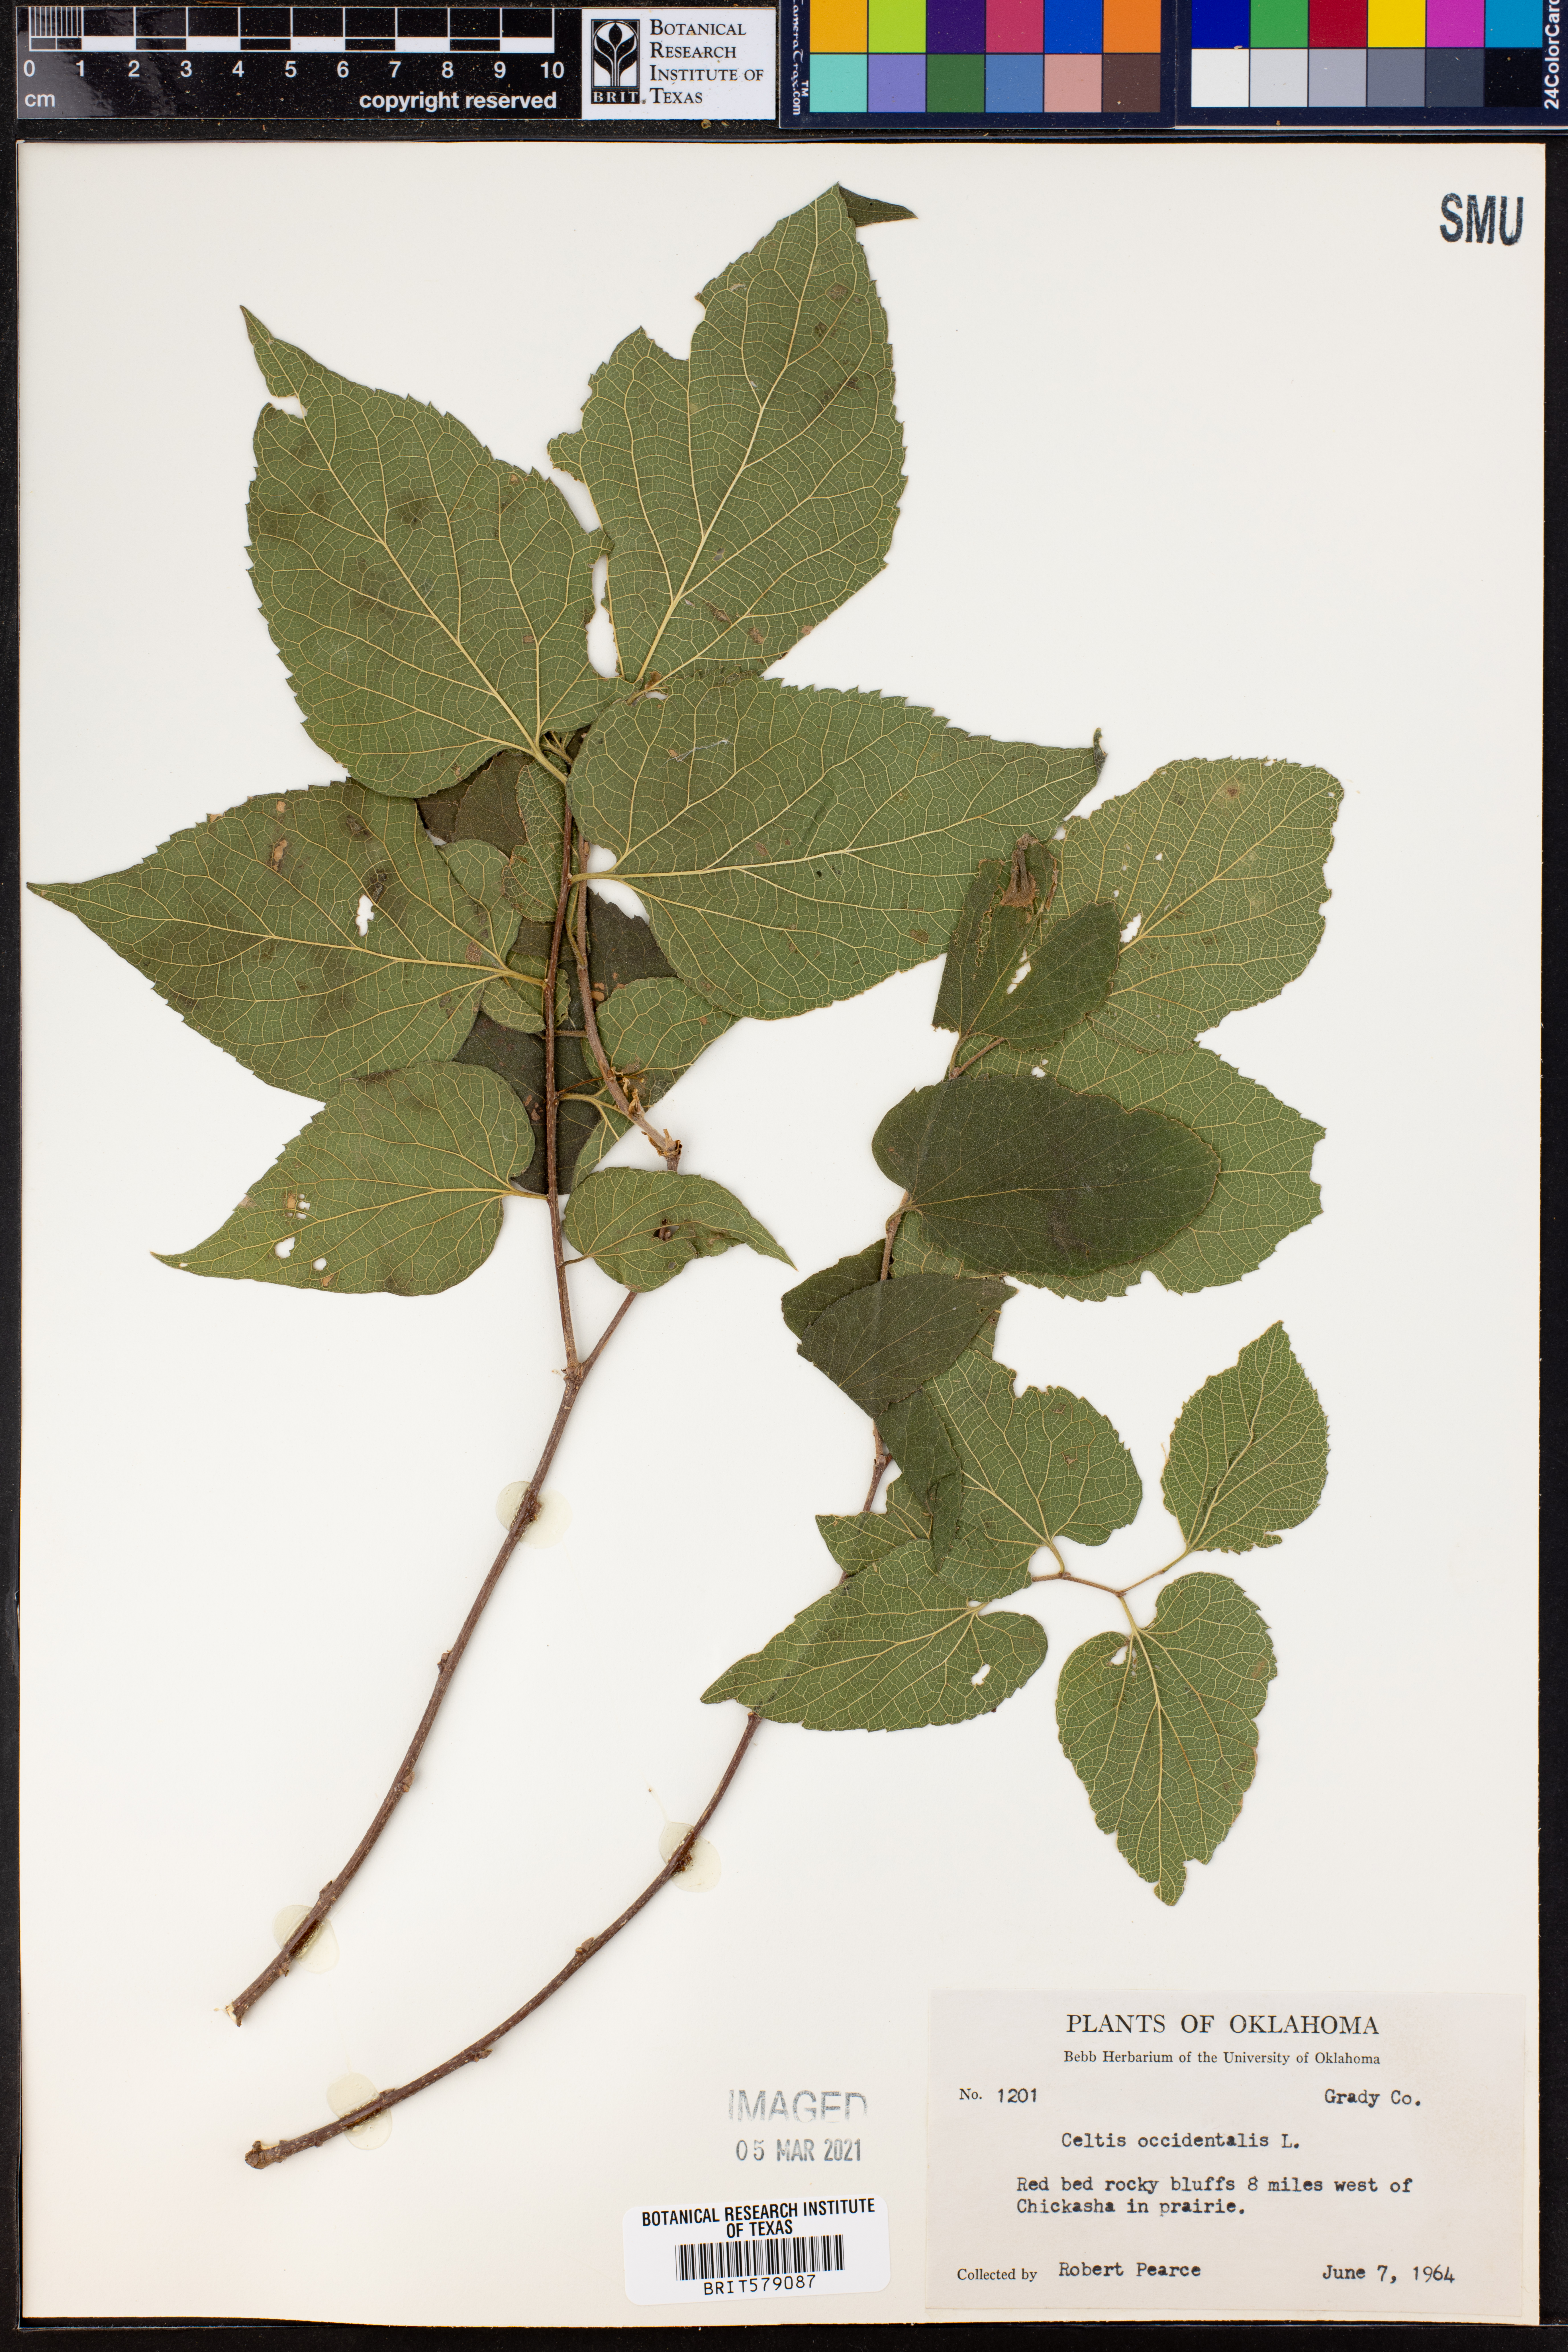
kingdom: Plantae
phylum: Tracheophyta
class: Magnoliopsida
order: Rosales
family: Cannabaceae
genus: Celtis
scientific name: Celtis occidentalis
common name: Common hackberry
